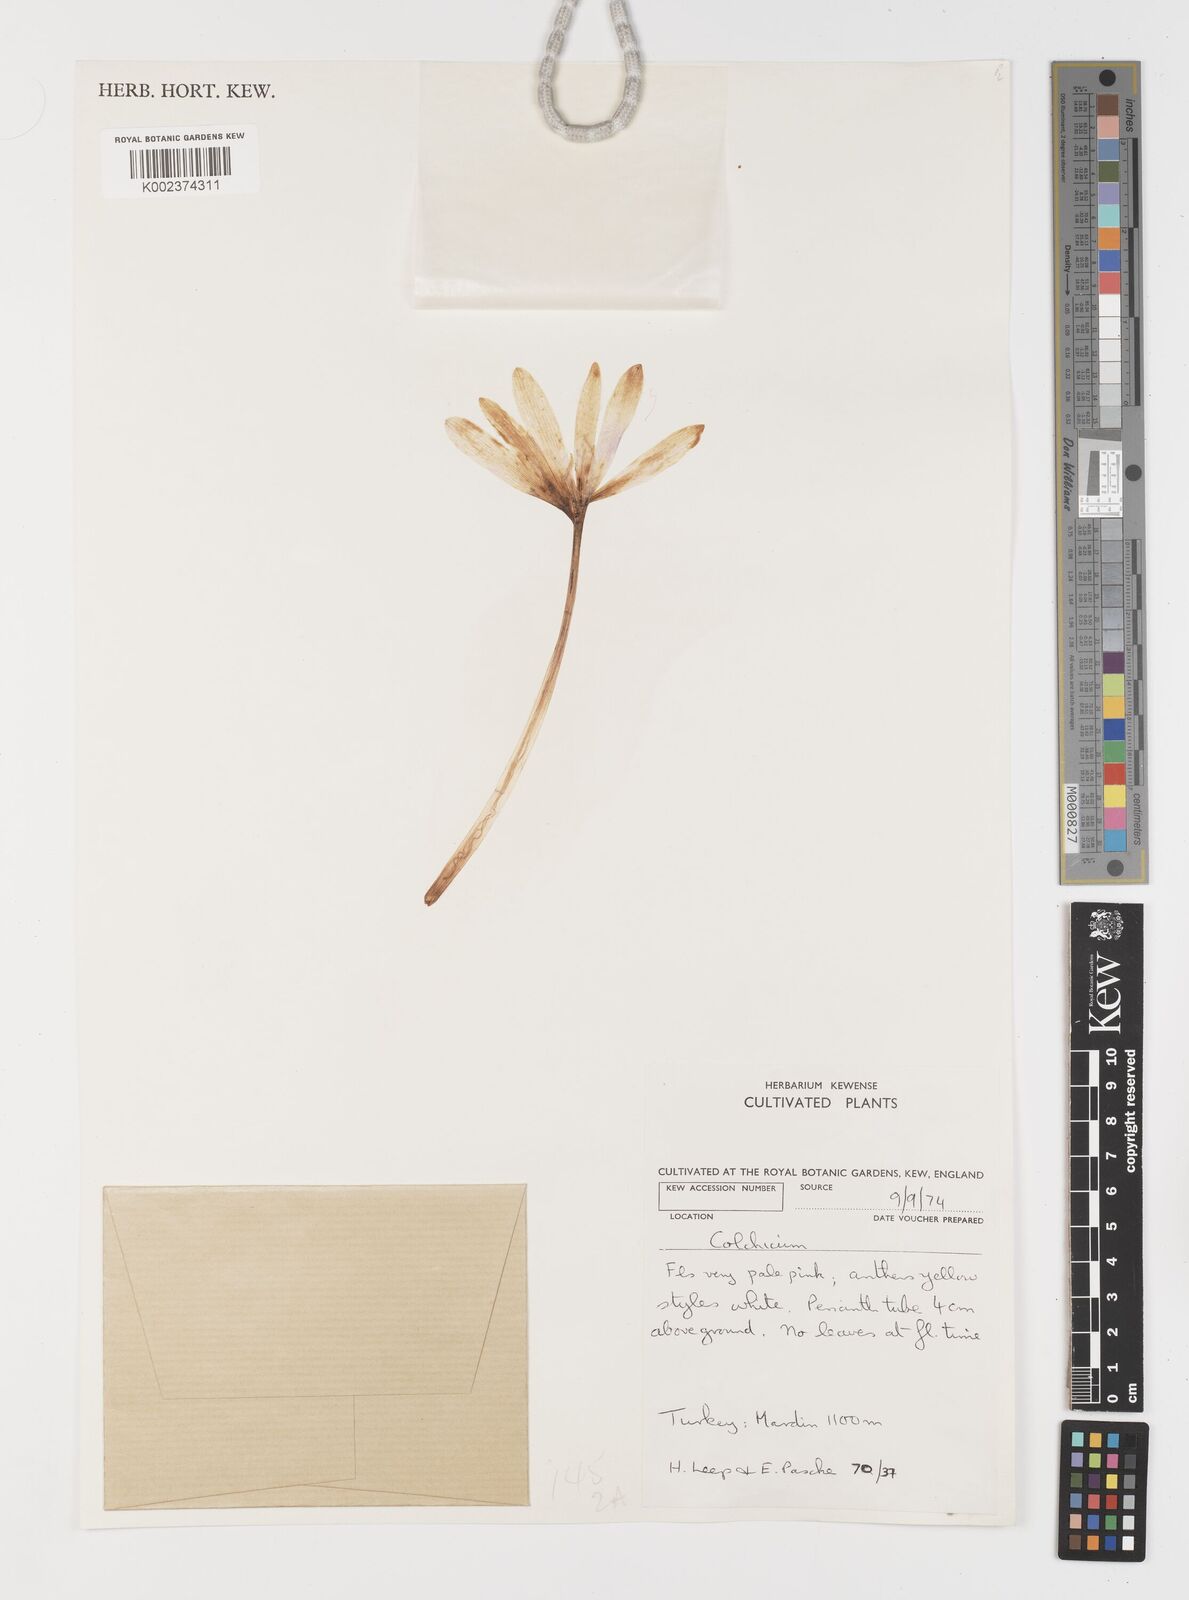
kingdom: Plantae
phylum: Tracheophyta
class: Liliopsida
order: Liliales
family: Colchicaceae
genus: Colchicum
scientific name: Colchicum
